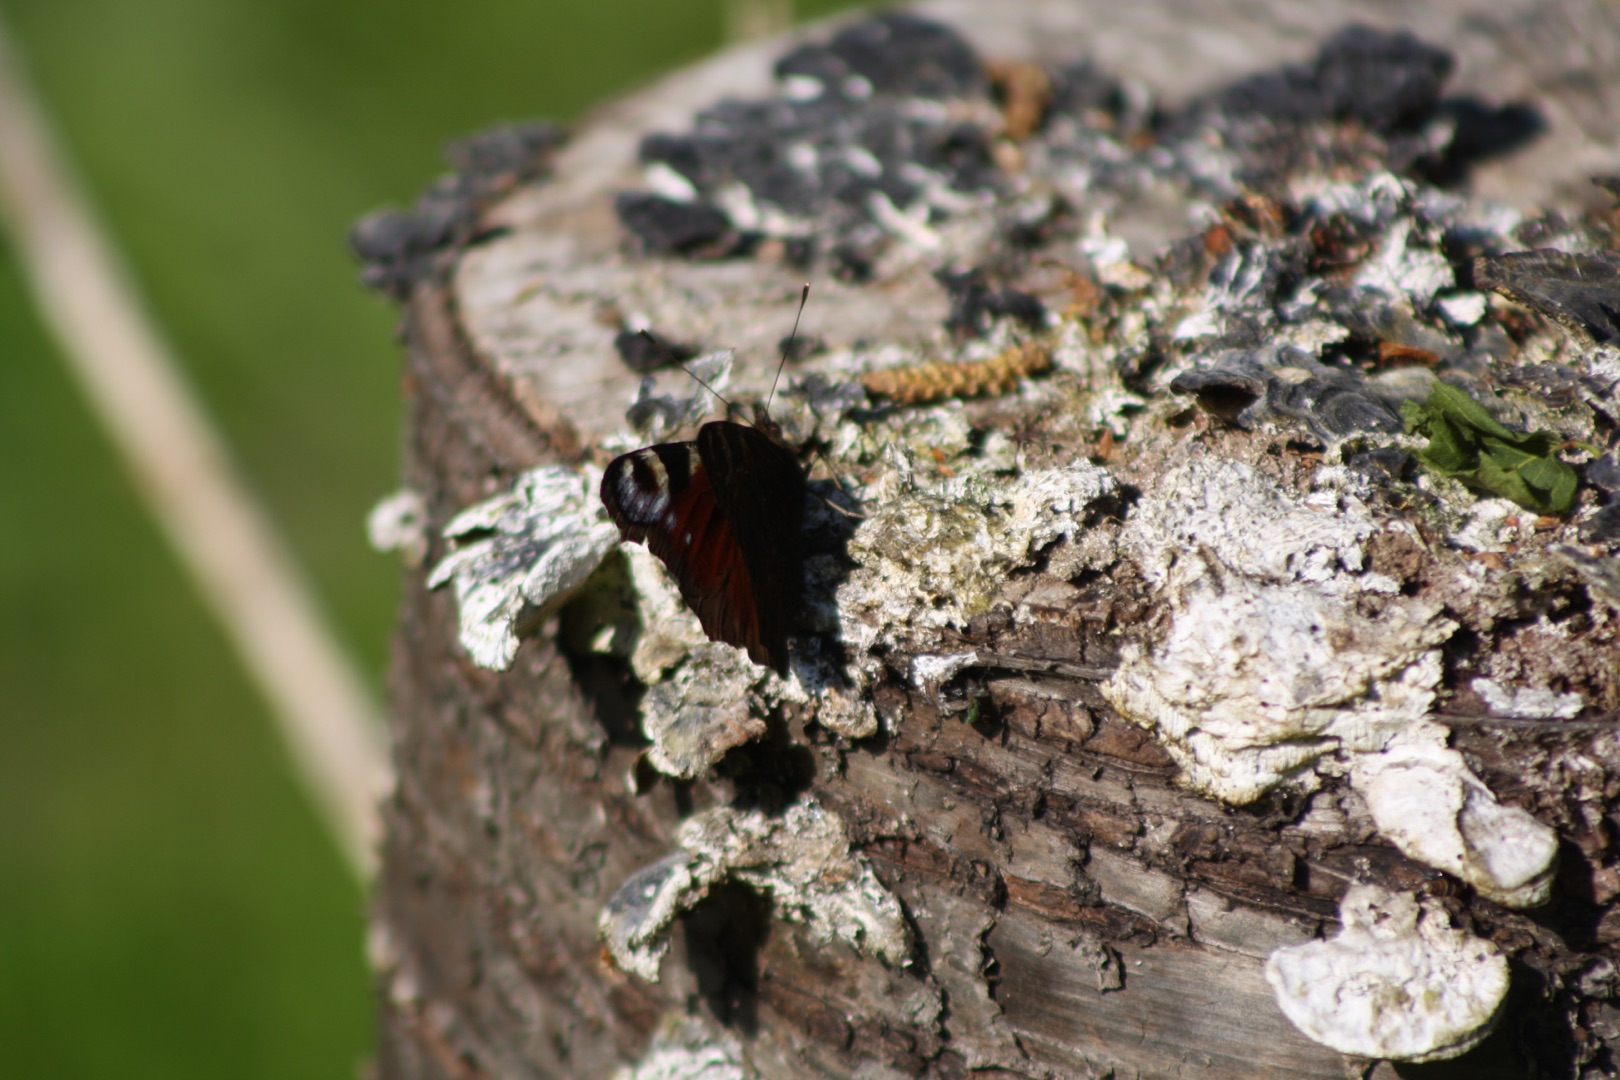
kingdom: Animalia
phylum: Arthropoda
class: Insecta
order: Lepidoptera
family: Nymphalidae
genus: Aglais
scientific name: Aglais io
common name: Dagpåfugleøje
